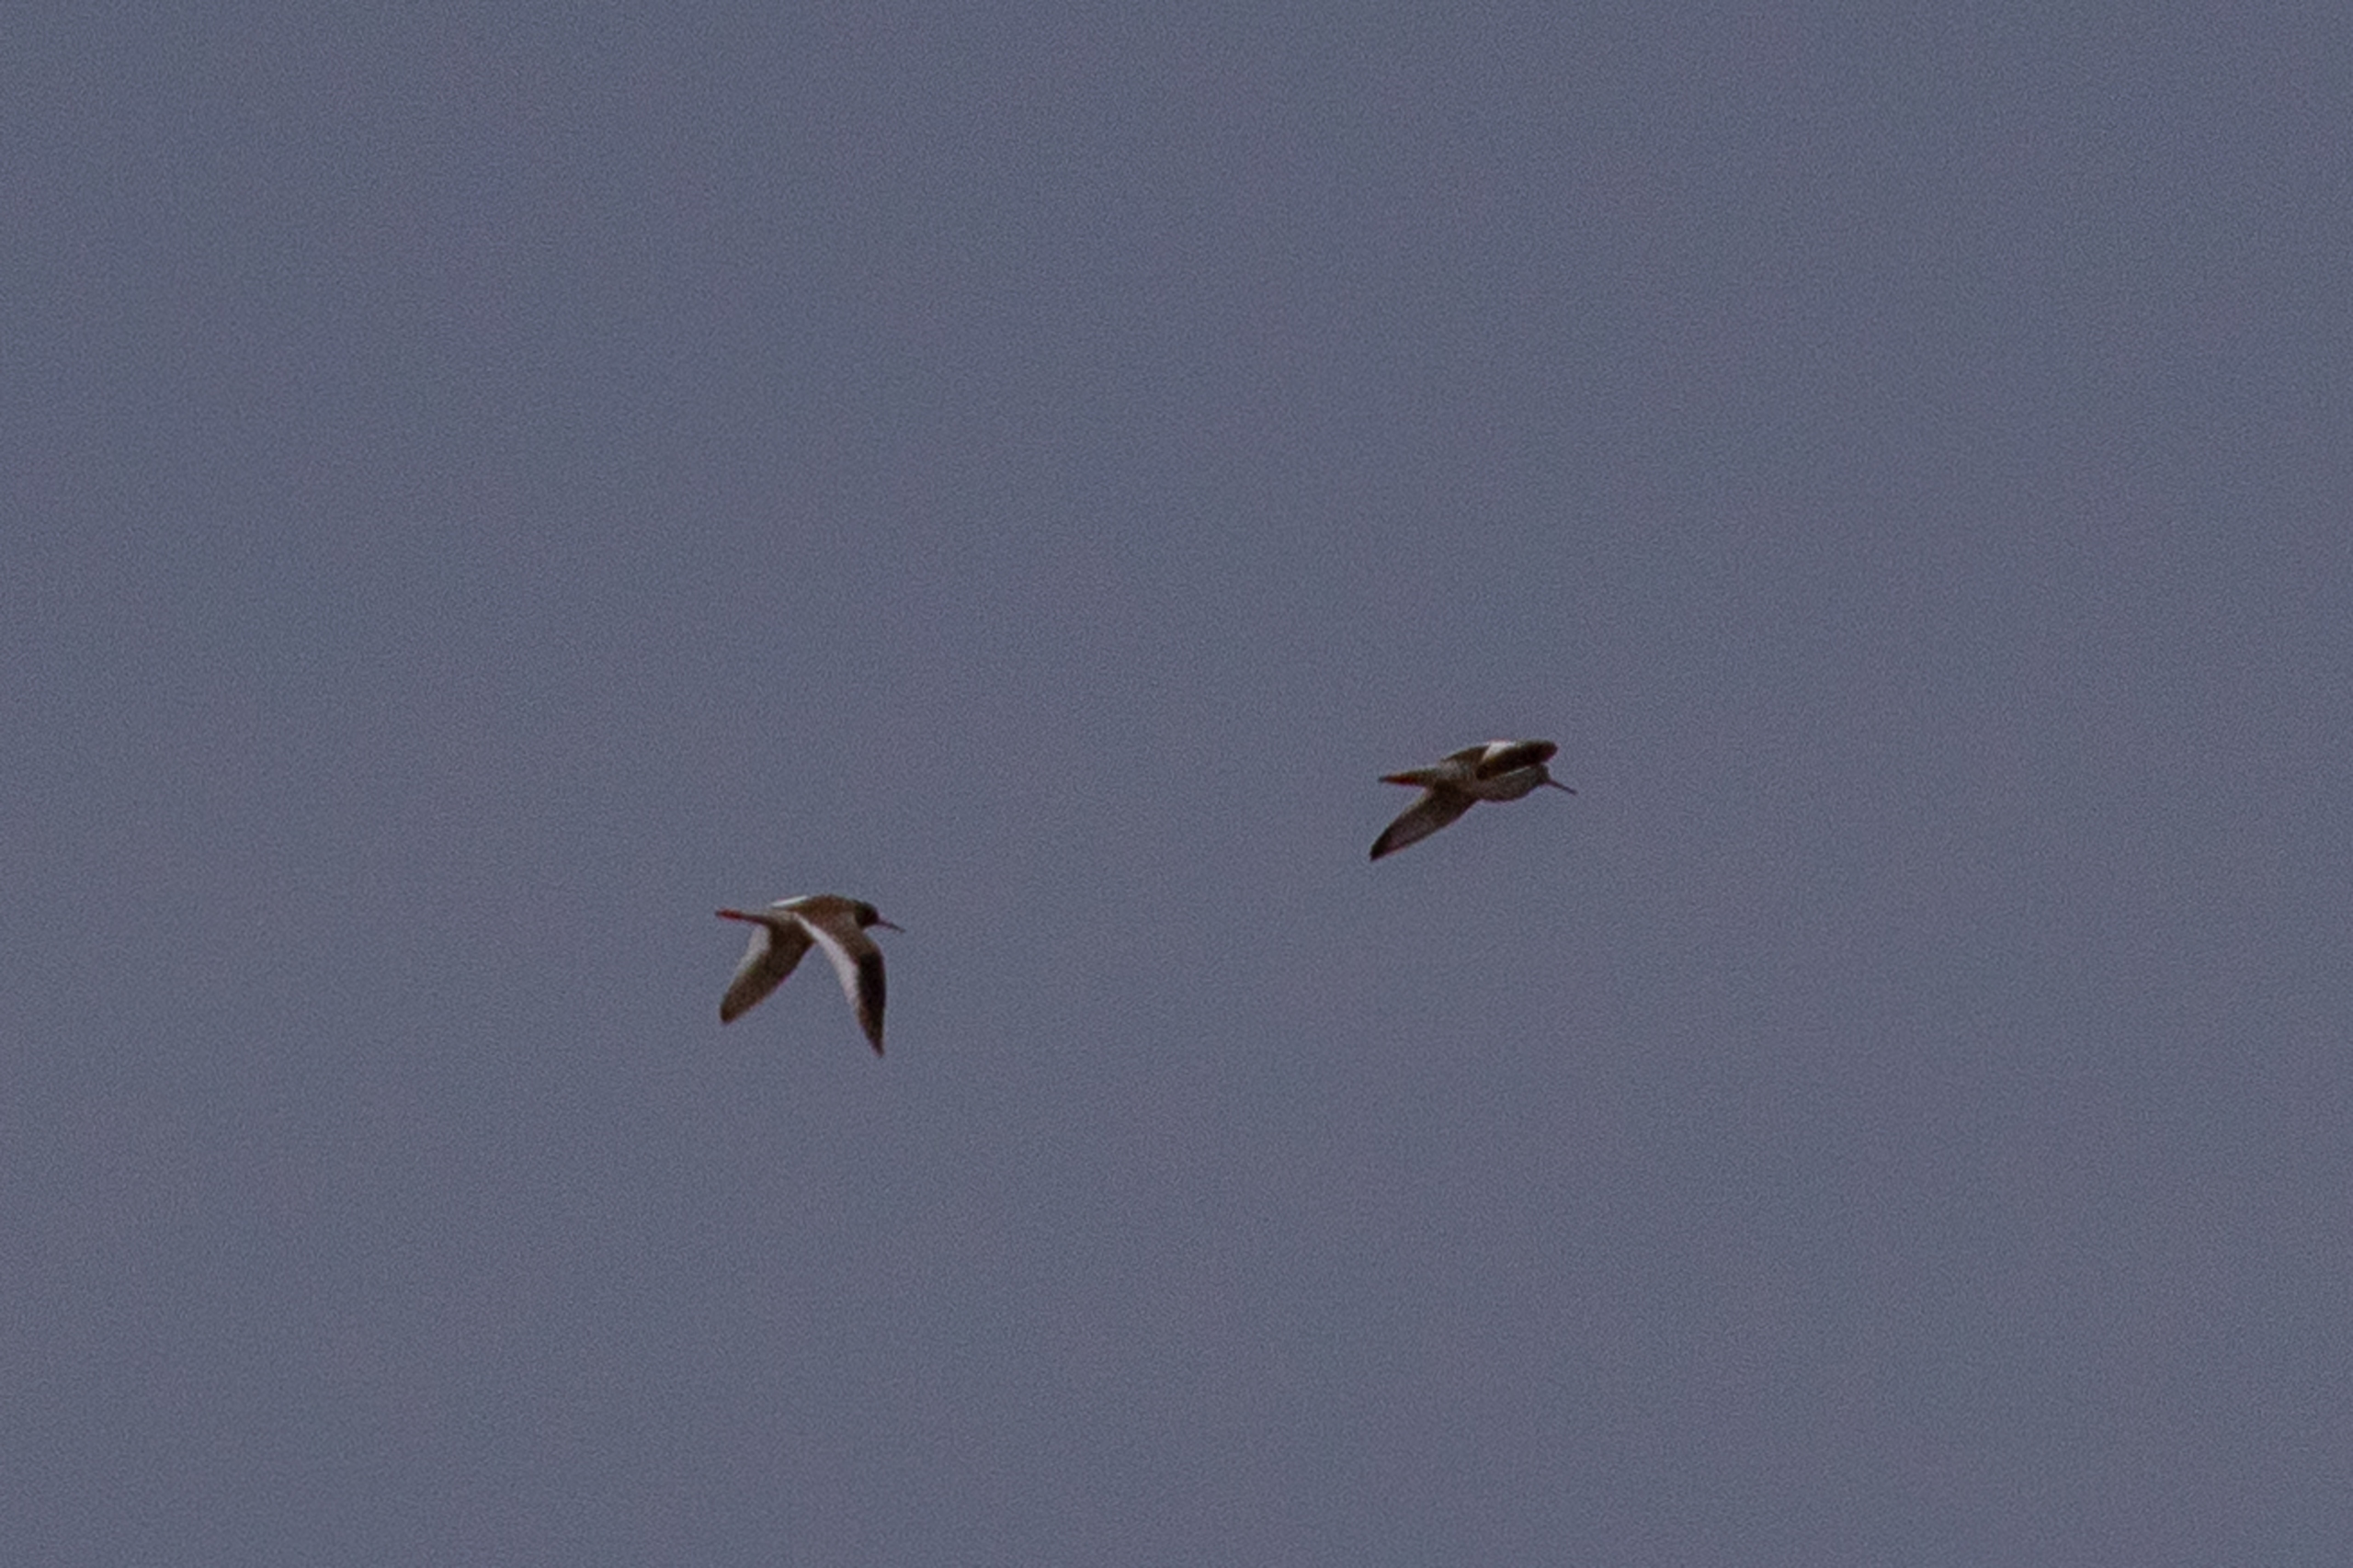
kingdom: Animalia
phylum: Chordata
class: Aves
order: Charadriiformes
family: Scolopacidae
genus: Tringa
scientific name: Tringa totanus
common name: Rødben
